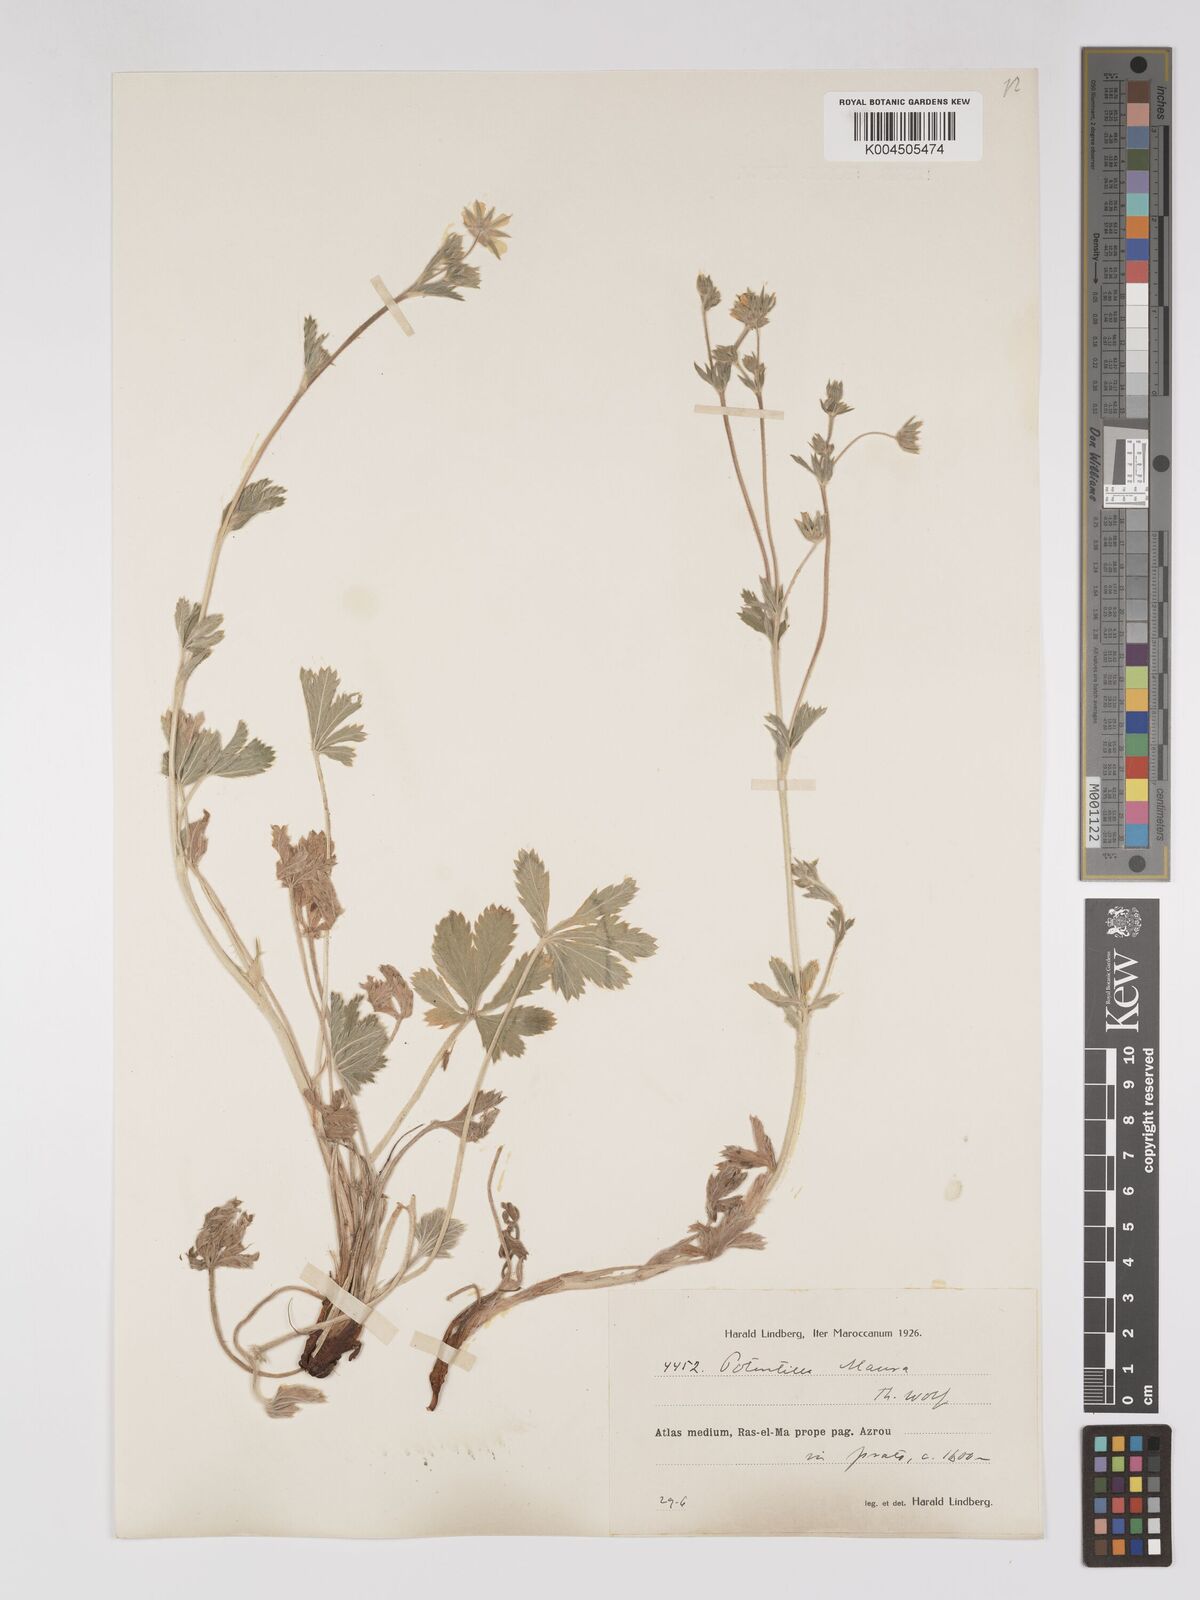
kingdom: Plantae
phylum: Tracheophyta
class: Magnoliopsida
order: Rosales
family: Rosaceae
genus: Potentilla
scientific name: Potentilla maura
